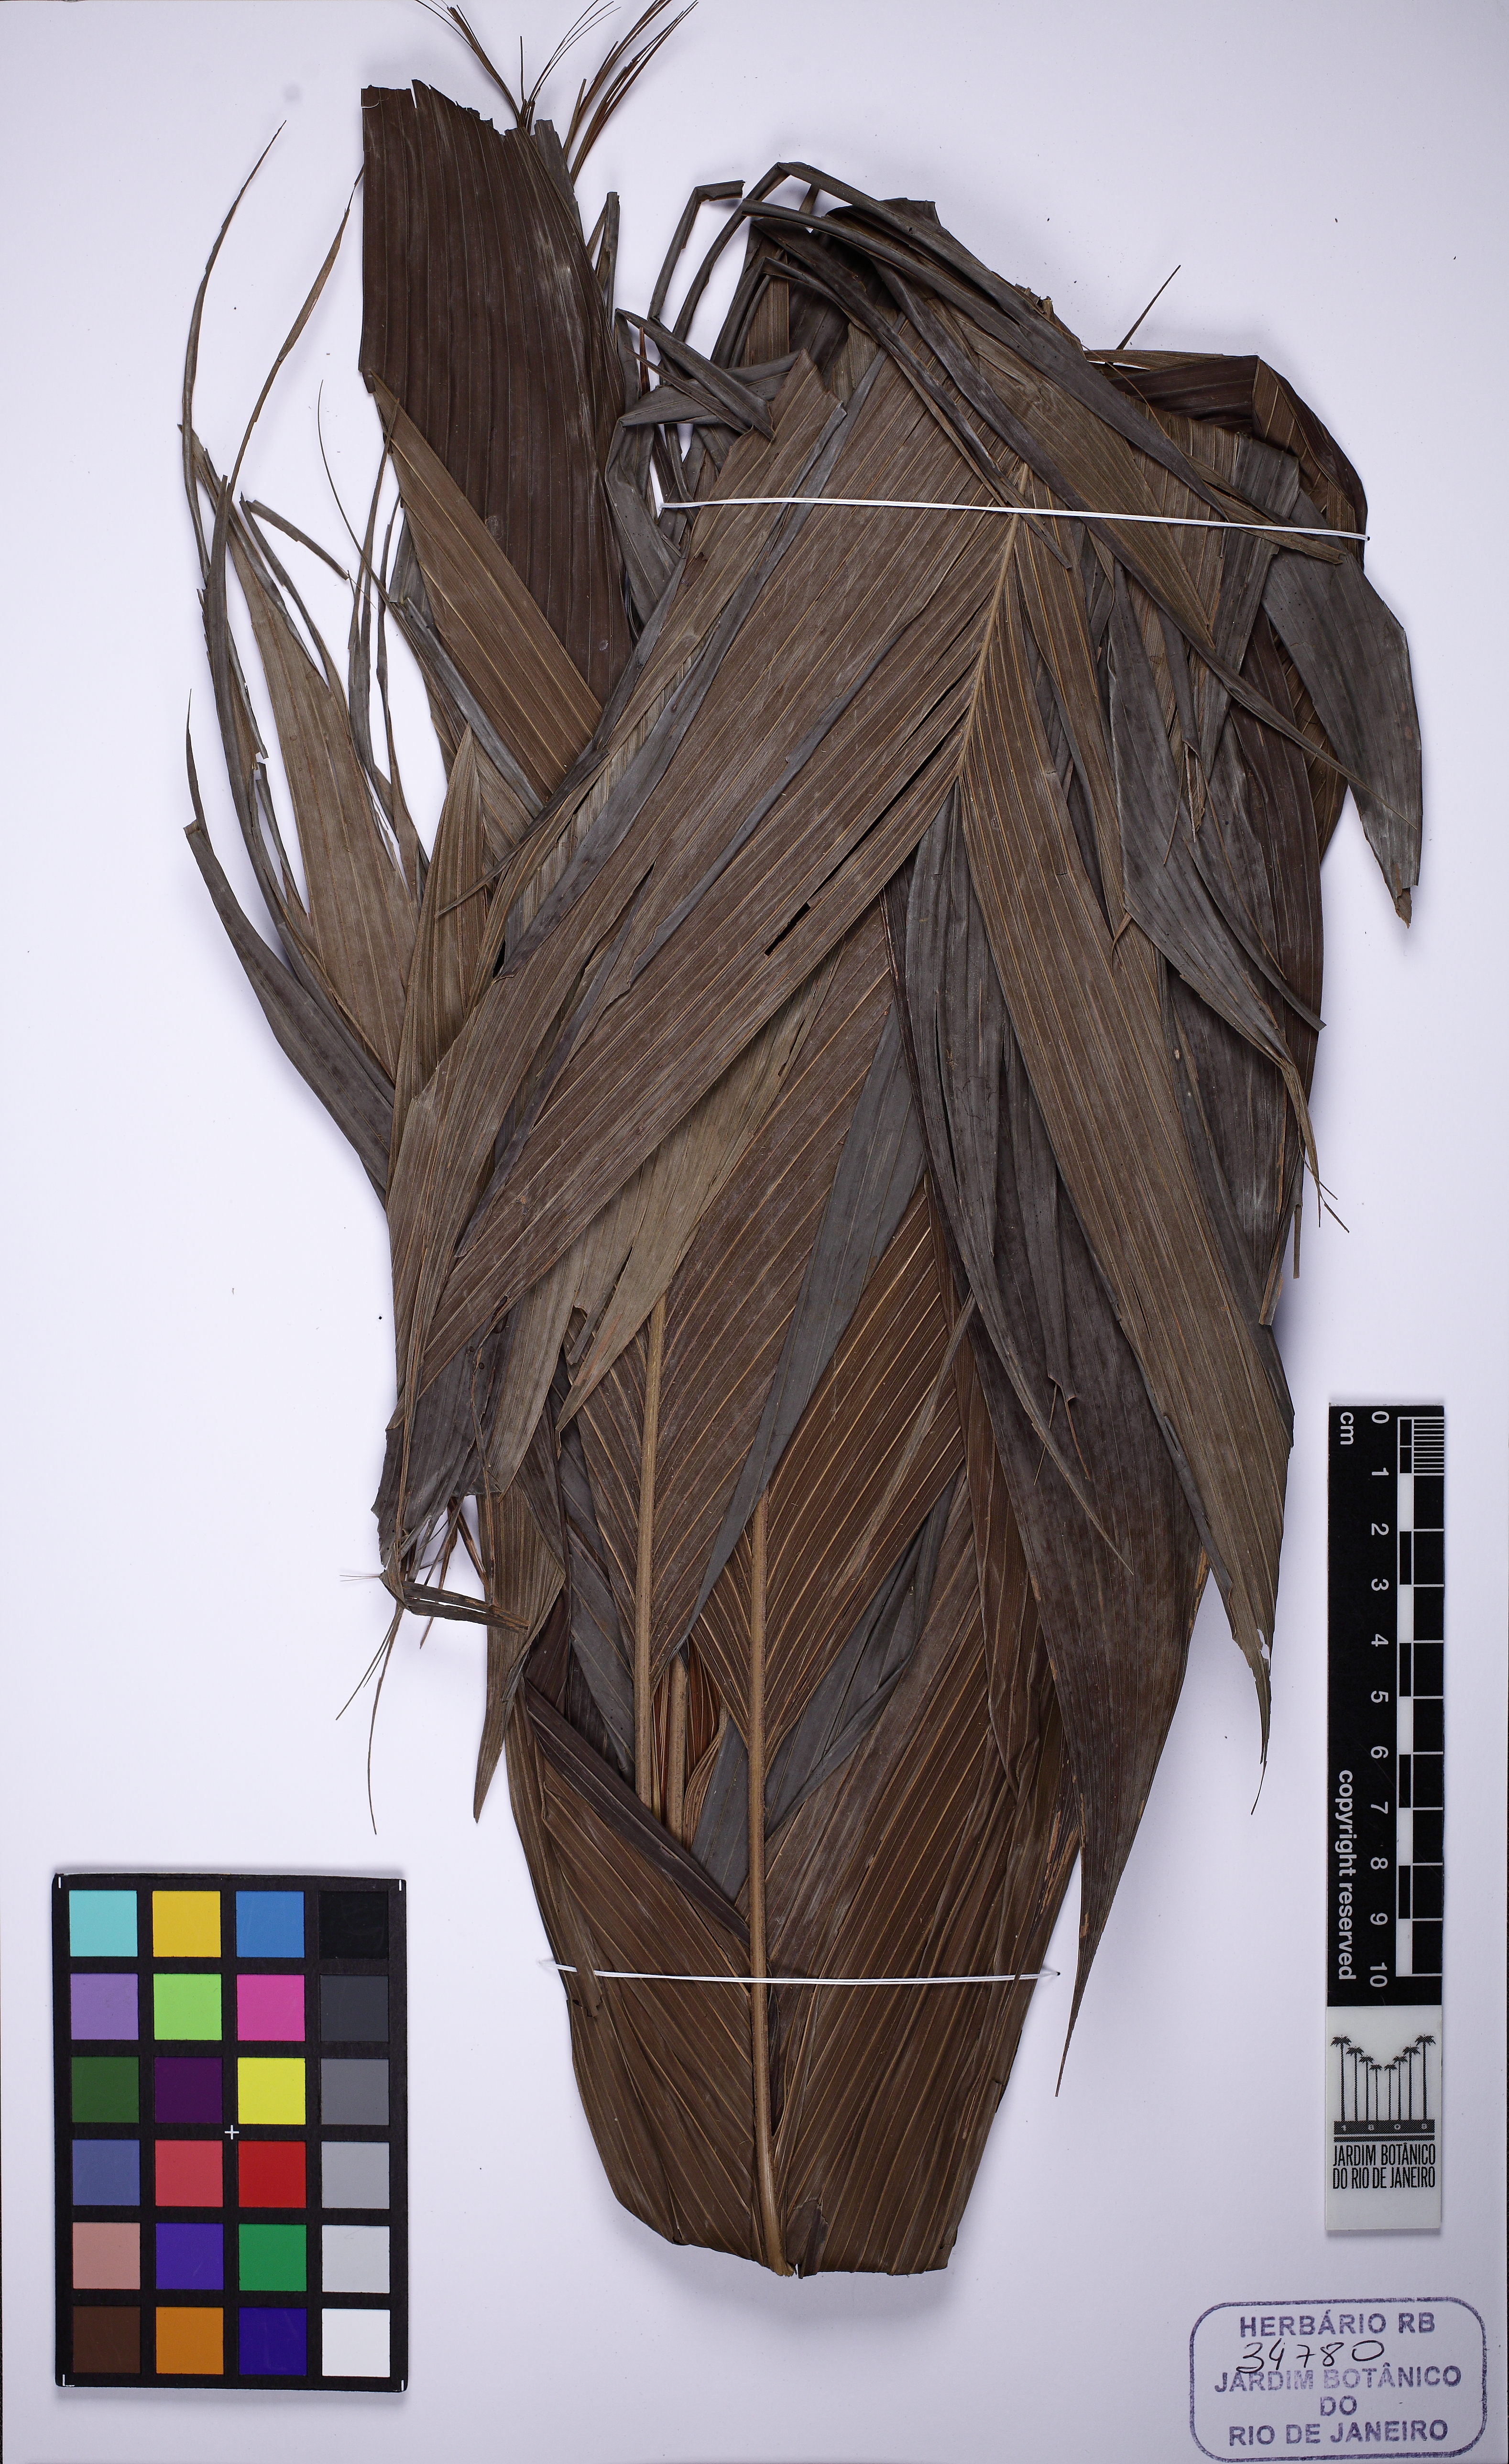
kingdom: Plantae
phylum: Tracheophyta
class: Liliopsida
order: Arecales
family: Arecaceae
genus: Geonoma
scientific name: Geonoma deversa
